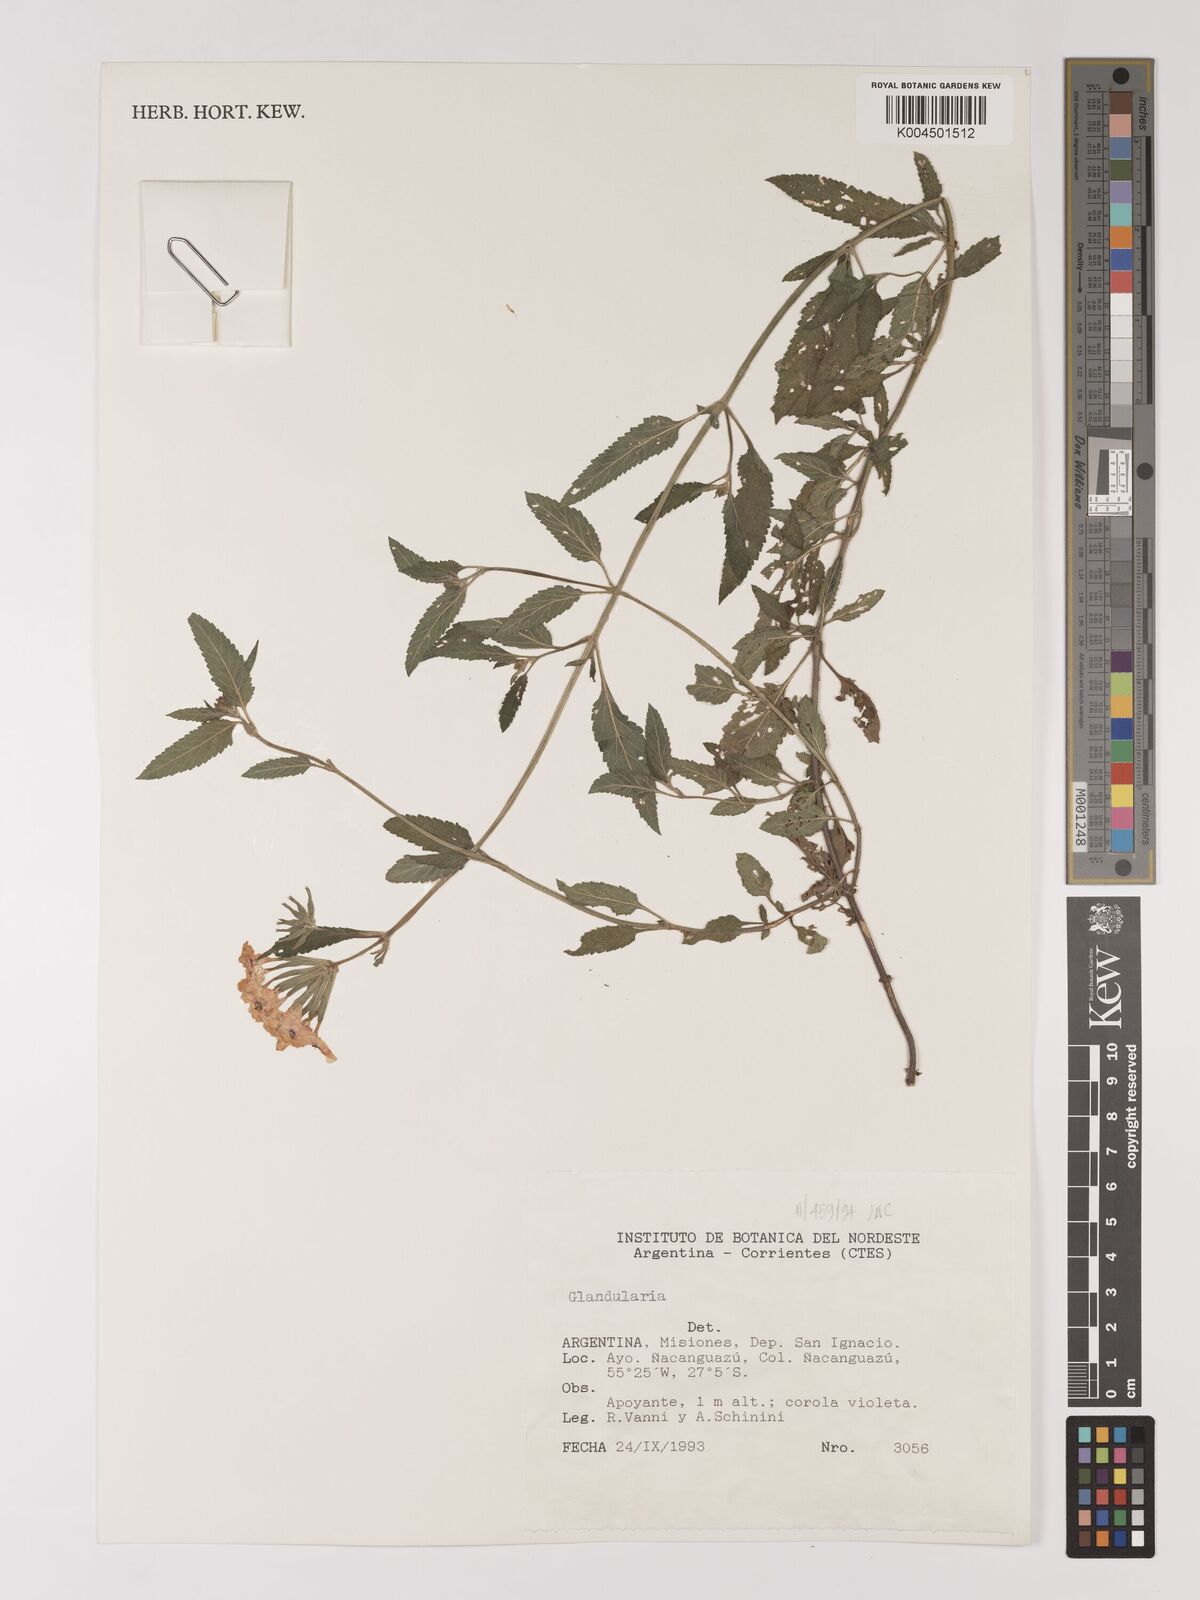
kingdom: Plantae
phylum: Tracheophyta
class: Magnoliopsida
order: Lamiales
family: Verbenaceae
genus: Verbena
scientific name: Verbena
